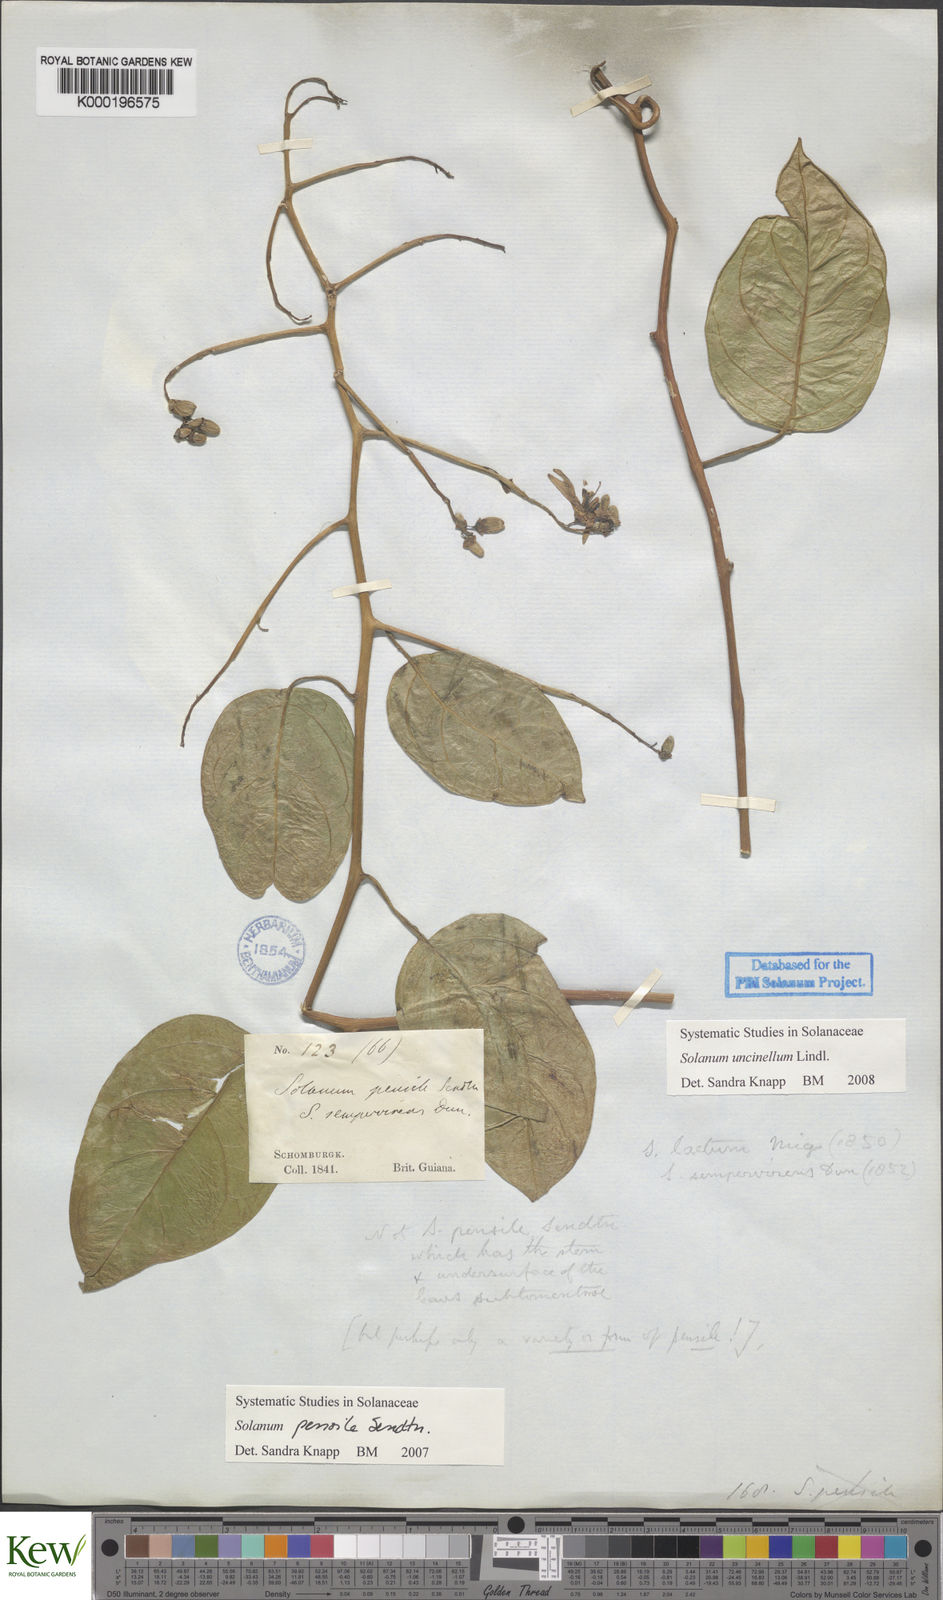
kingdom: Plantae
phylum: Tracheophyta
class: Magnoliopsida
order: Solanales
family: Solanaceae
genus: Solanum
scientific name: Solanum uncinellum
